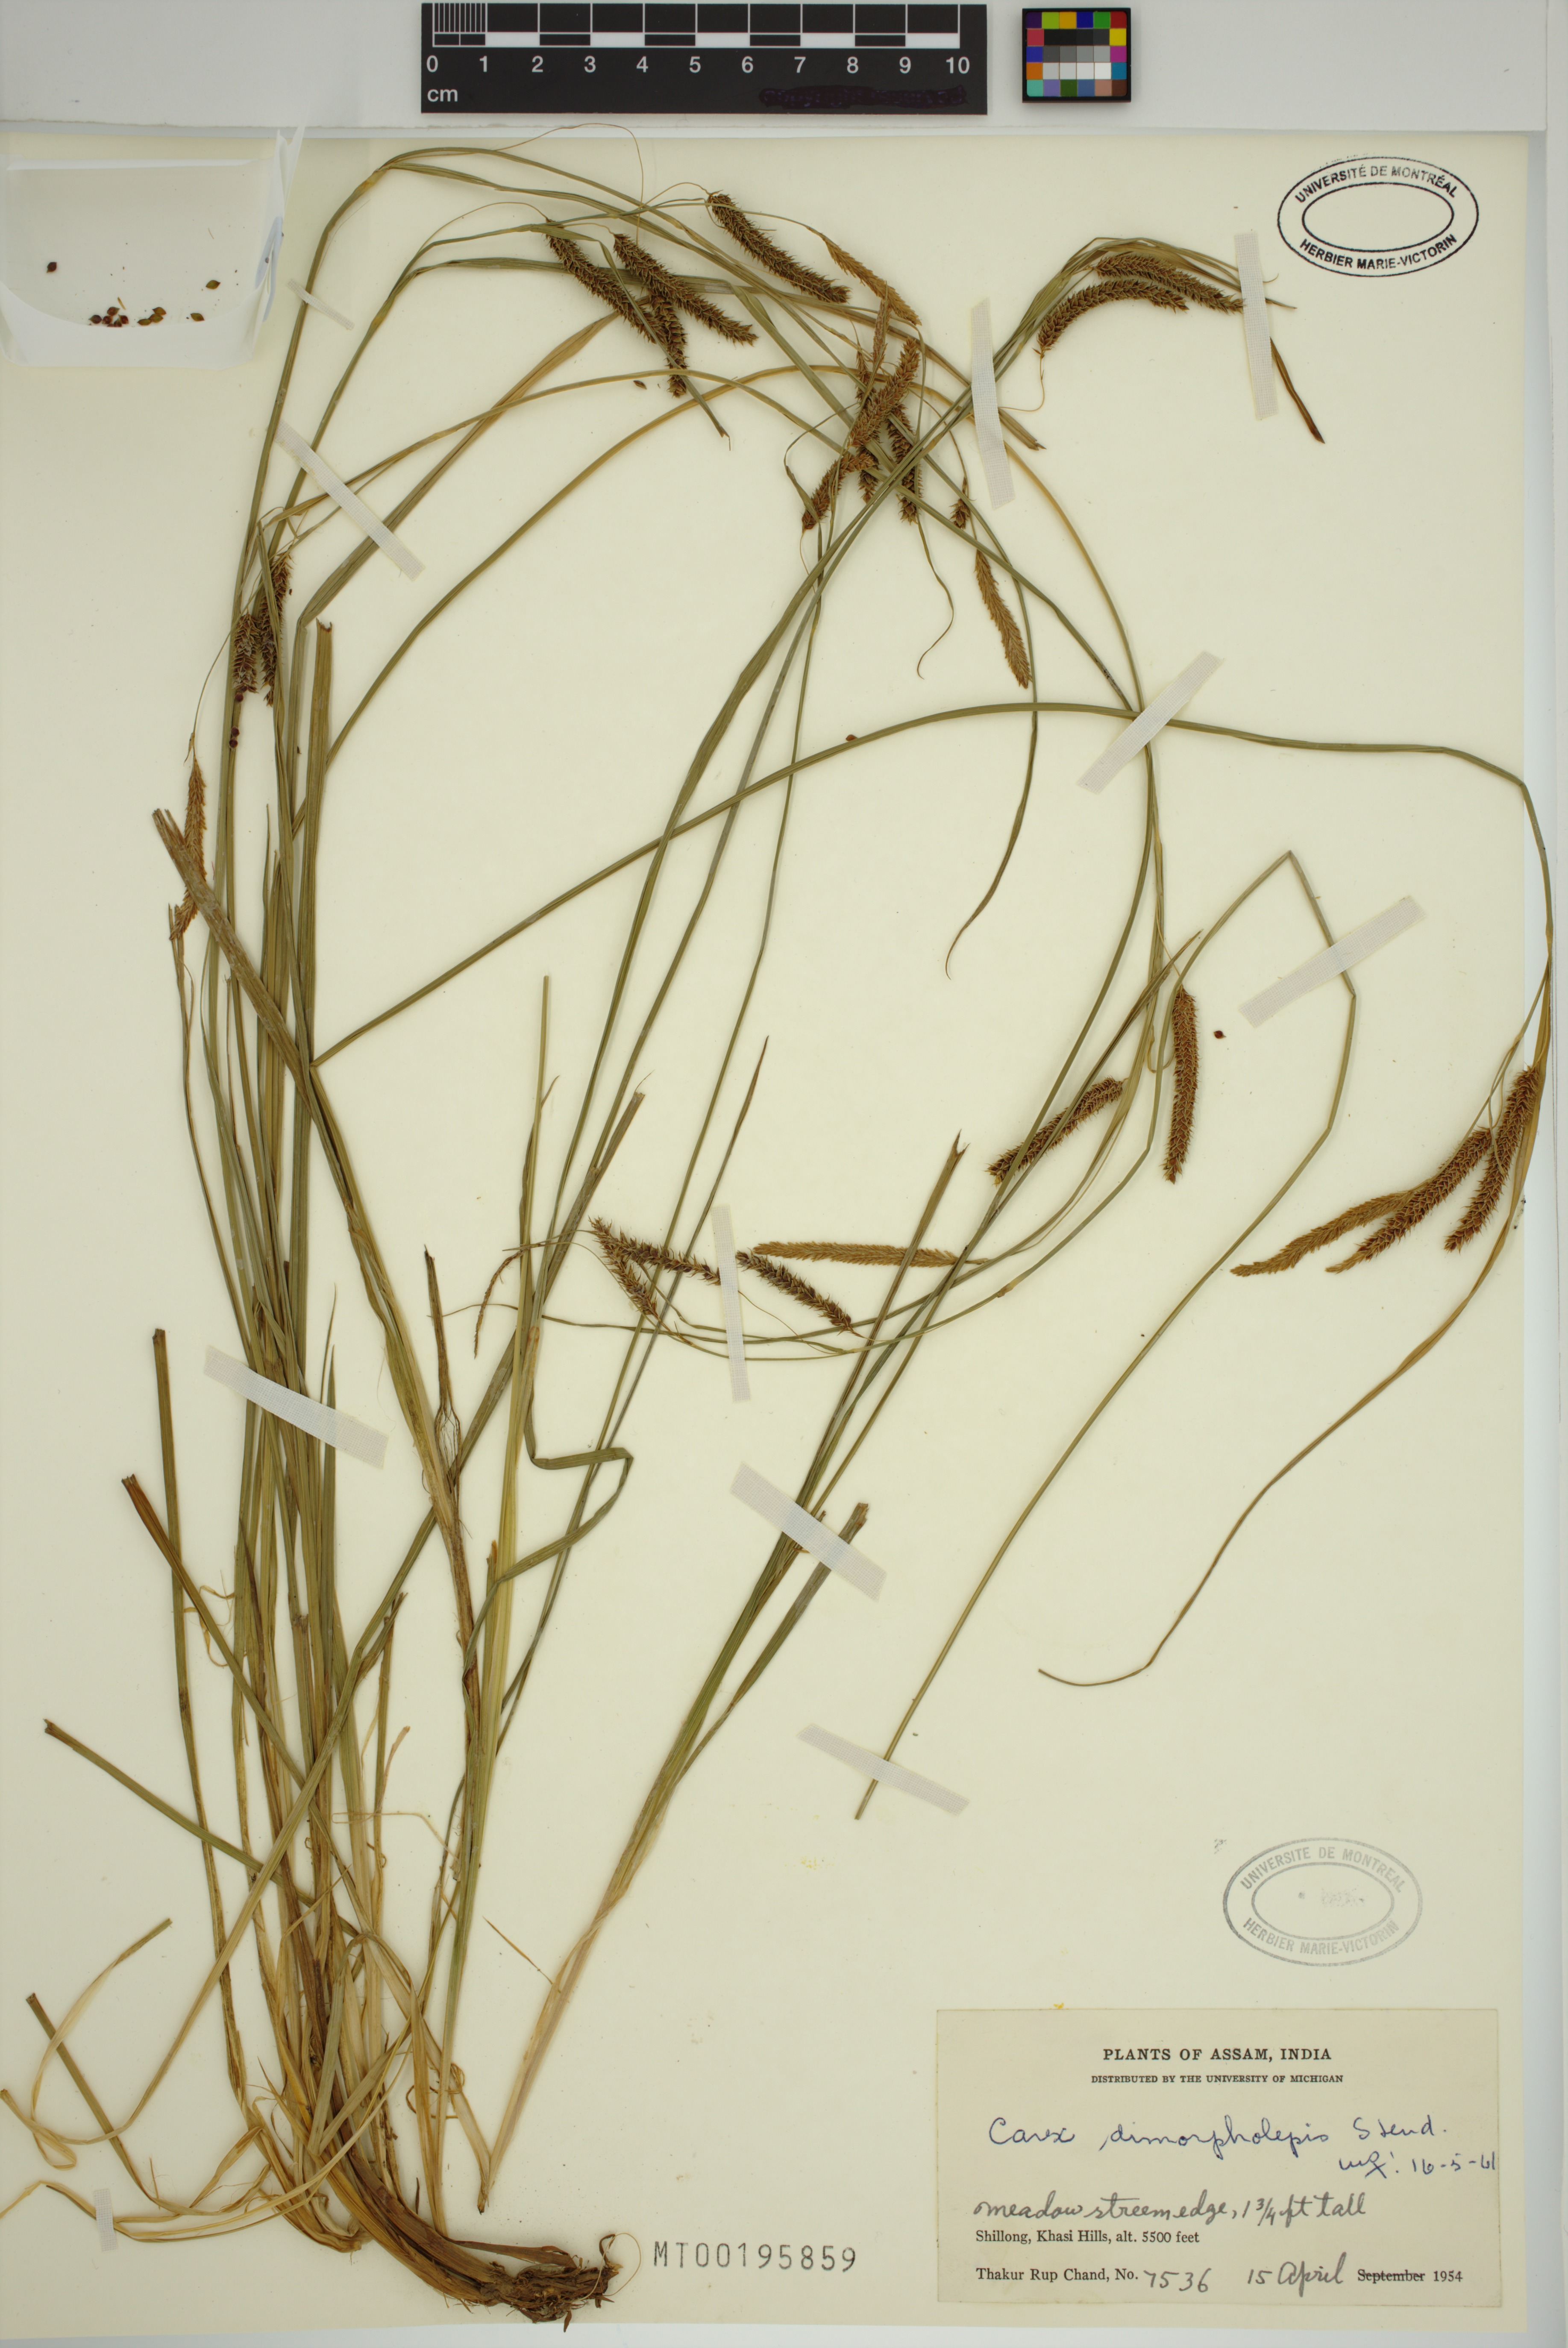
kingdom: Plantae
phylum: Tracheophyta
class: Liliopsida
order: Poales
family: Cyperaceae
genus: Carex
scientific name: Carex dimorpholepis
